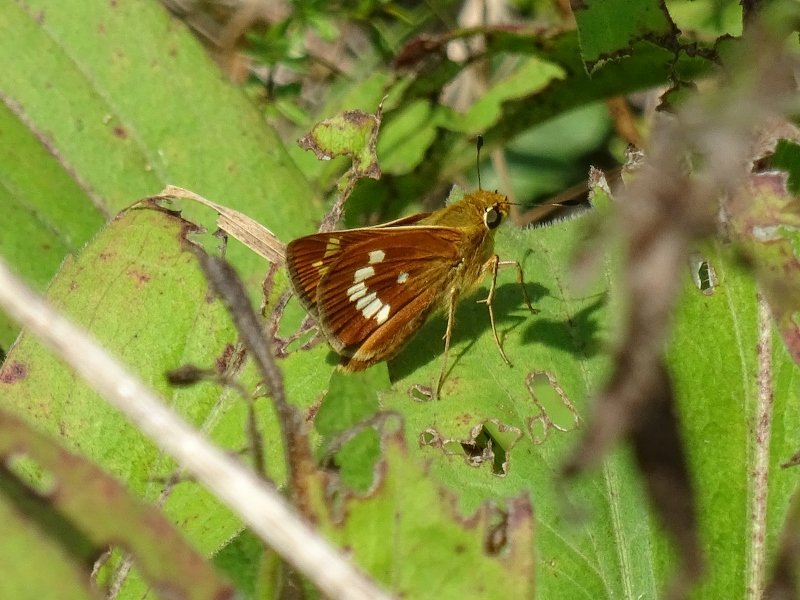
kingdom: Animalia
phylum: Arthropoda
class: Insecta
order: Lepidoptera
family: Hesperiidae
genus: Hesperia
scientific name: Hesperia leonardus
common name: Leonard's Skipper
